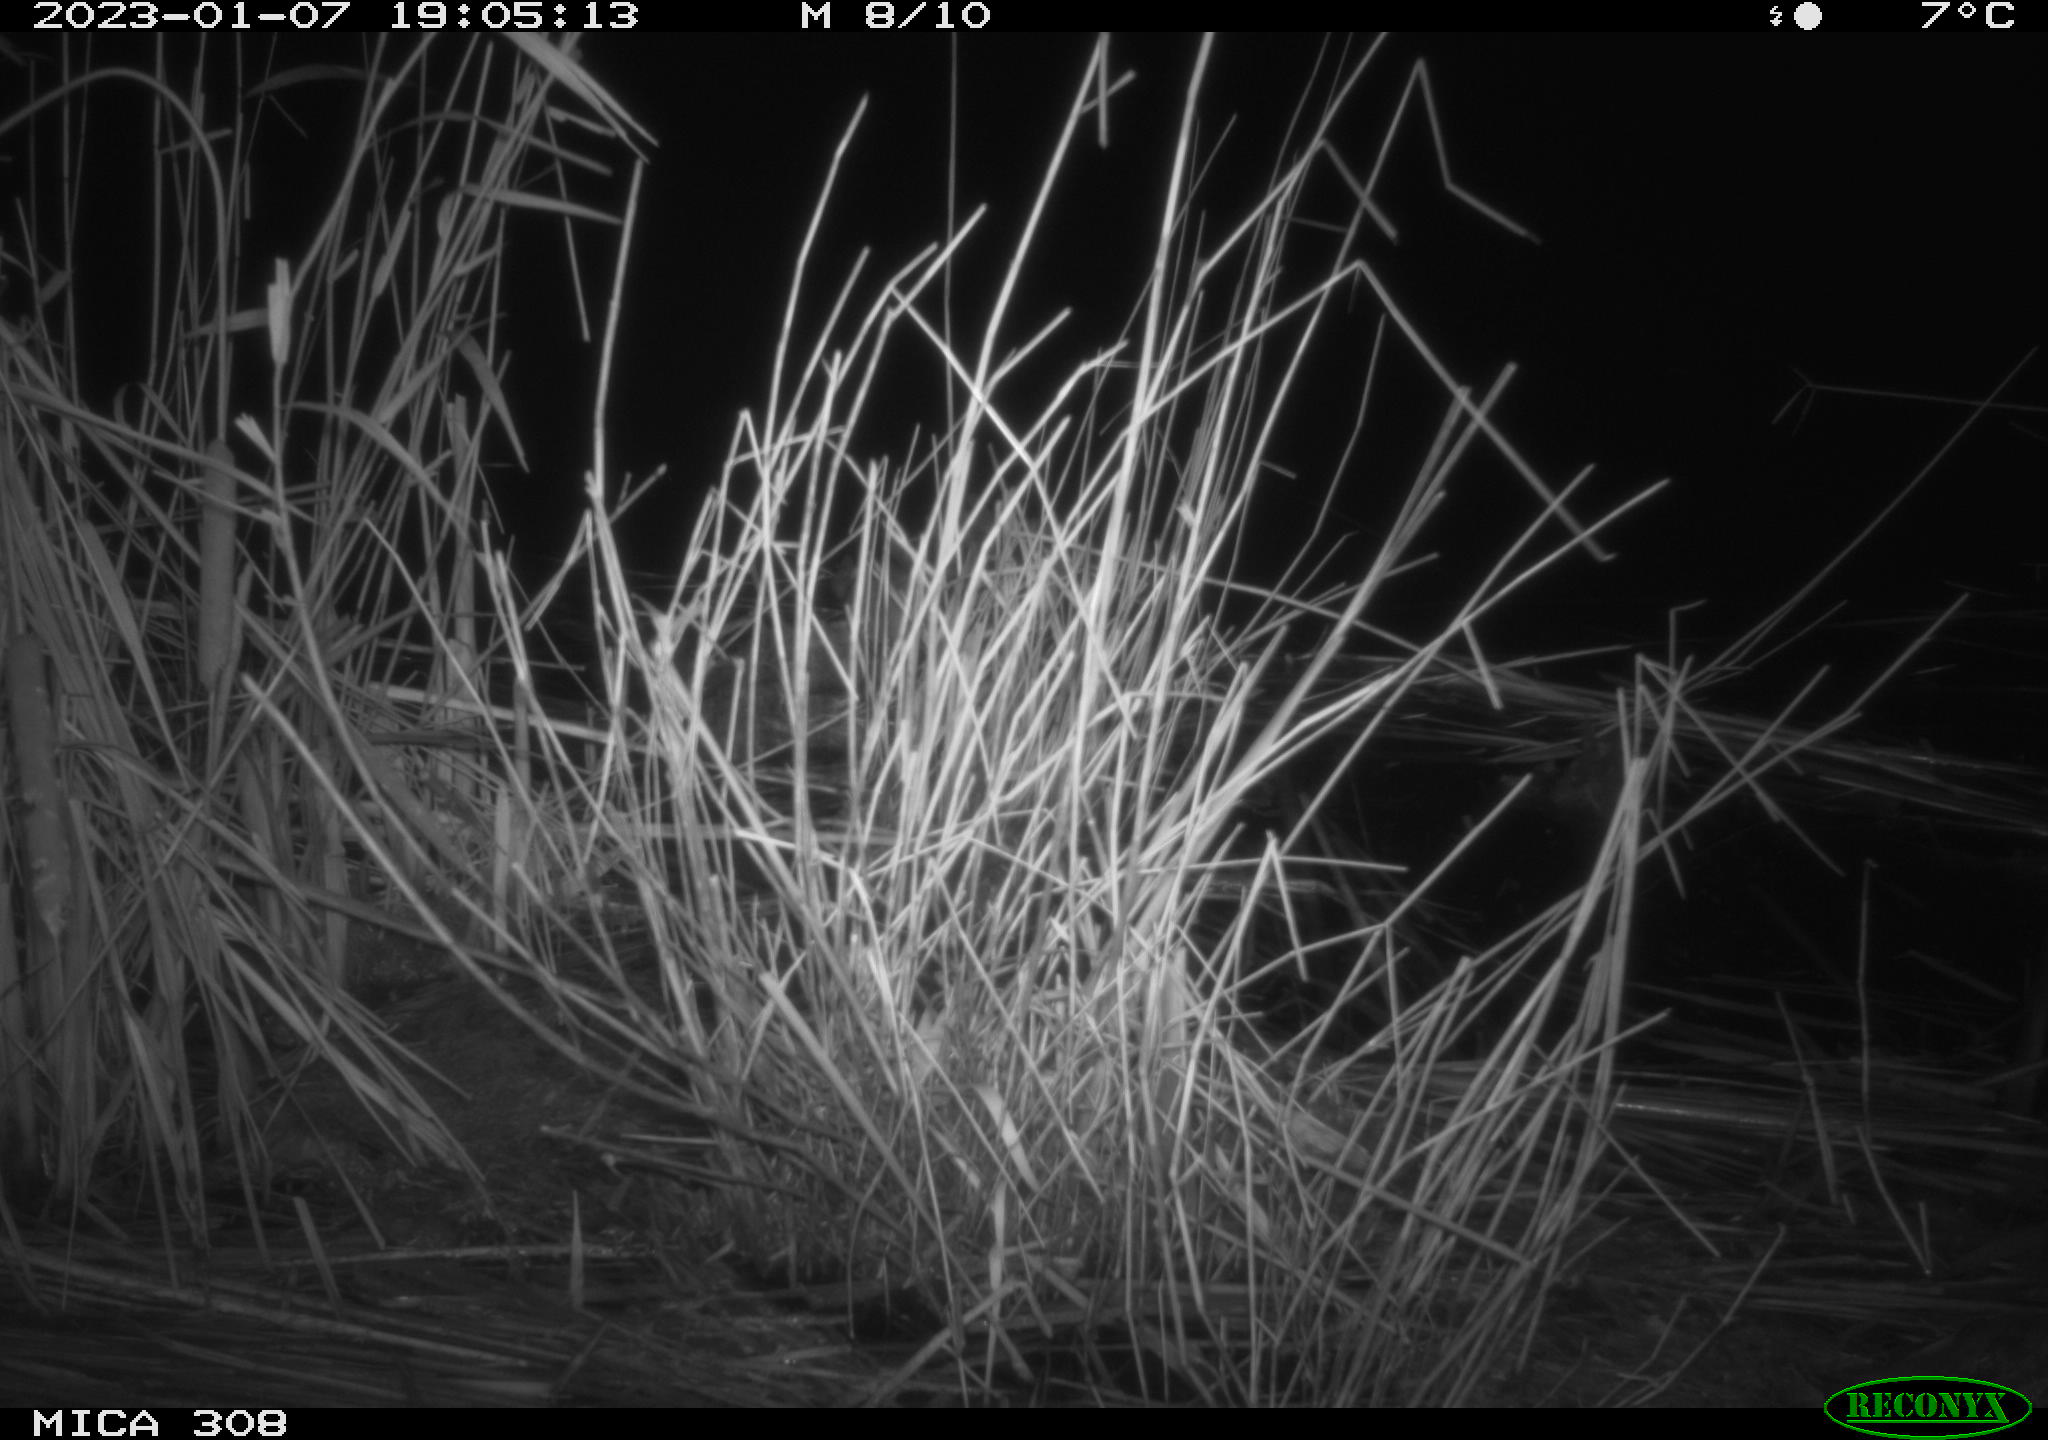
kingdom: Animalia
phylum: Chordata
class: Mammalia
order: Rodentia
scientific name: Rodentia
